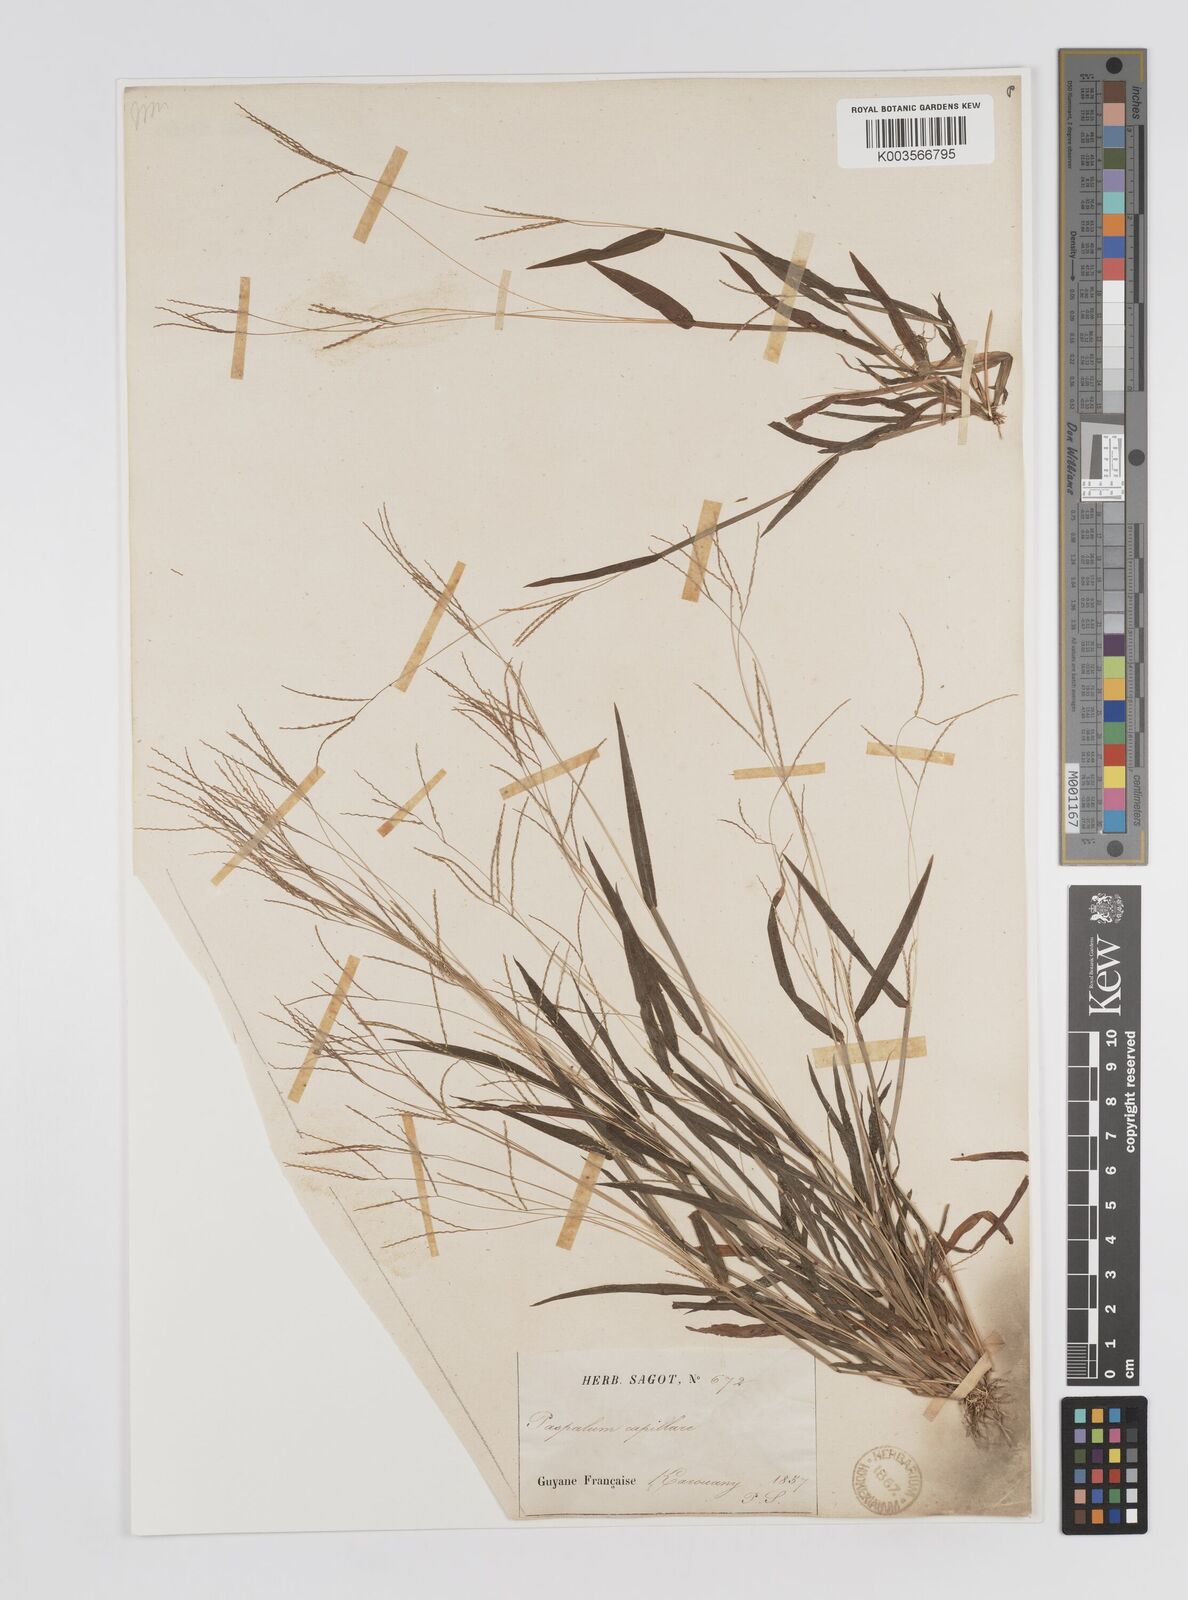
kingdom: Plantae
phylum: Tracheophyta
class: Liliopsida
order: Poales
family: Poaceae
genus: Axonopus
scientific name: Axonopus capillaris
